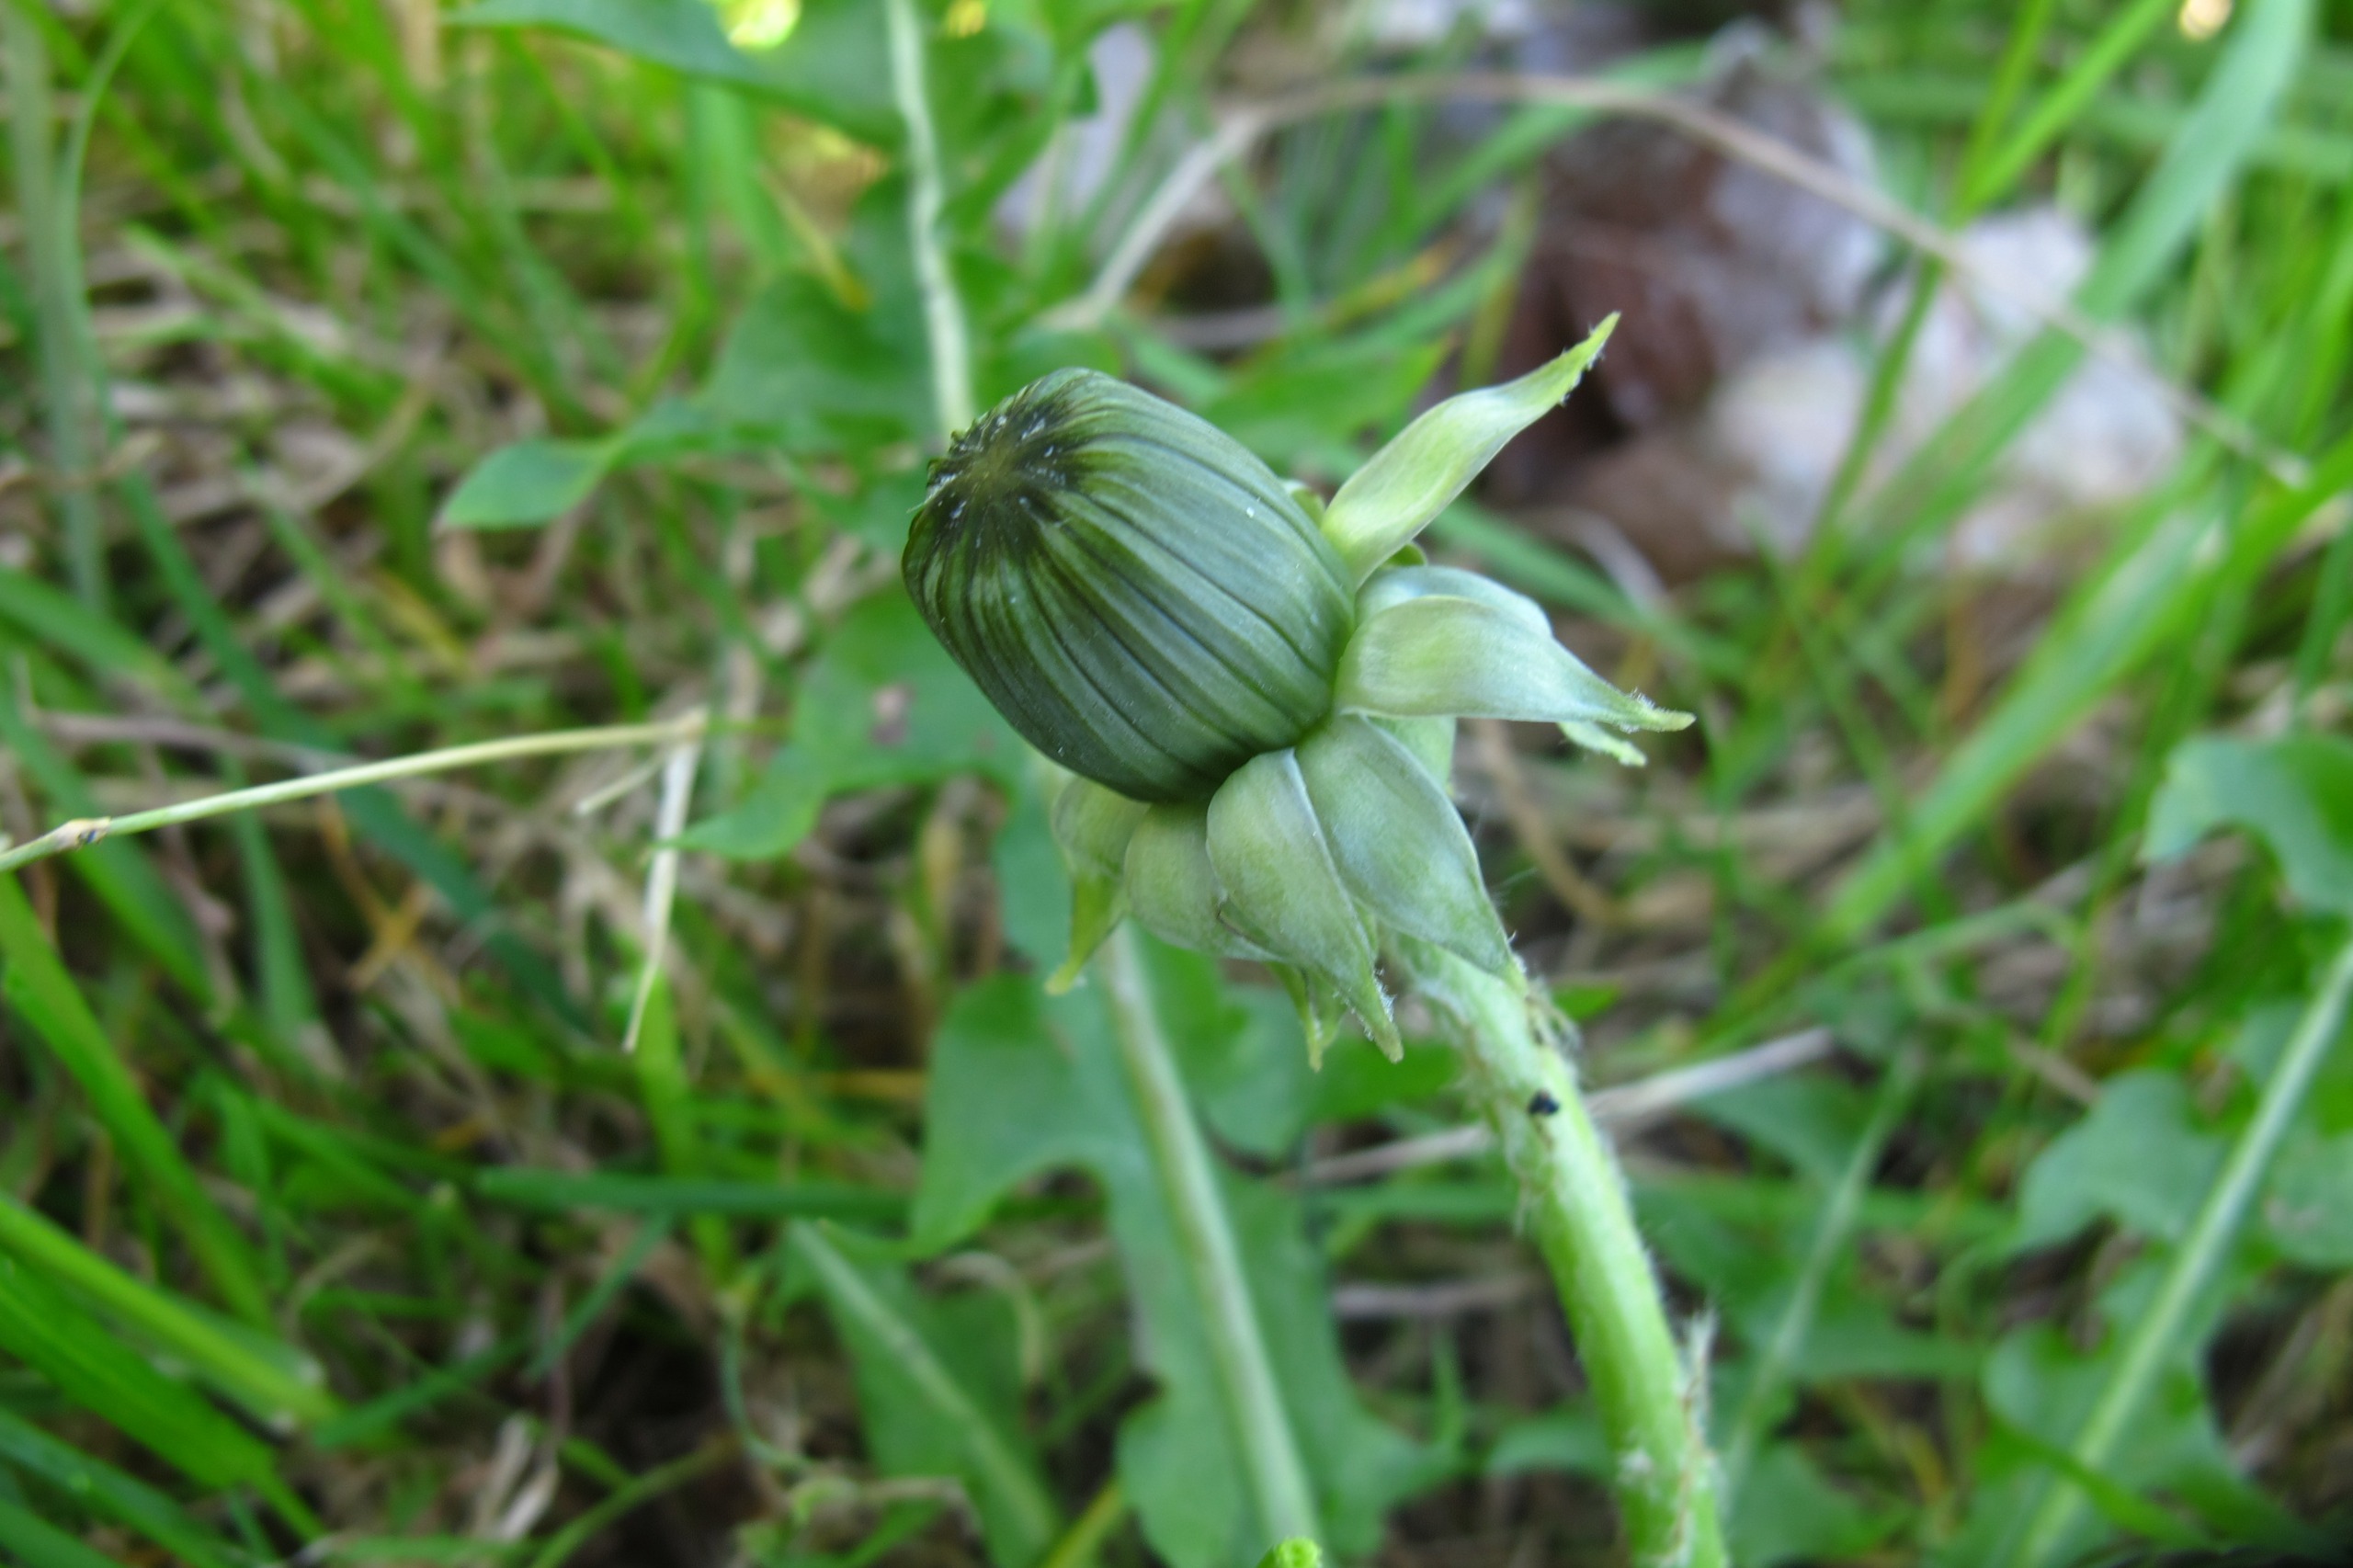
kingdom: Plantae
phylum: Tracheophyta
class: Magnoliopsida
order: Asterales
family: Asteraceae
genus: Taraxacum
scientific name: Taraxacum gesticulans
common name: Gestikulerende vejmælkebøtte
